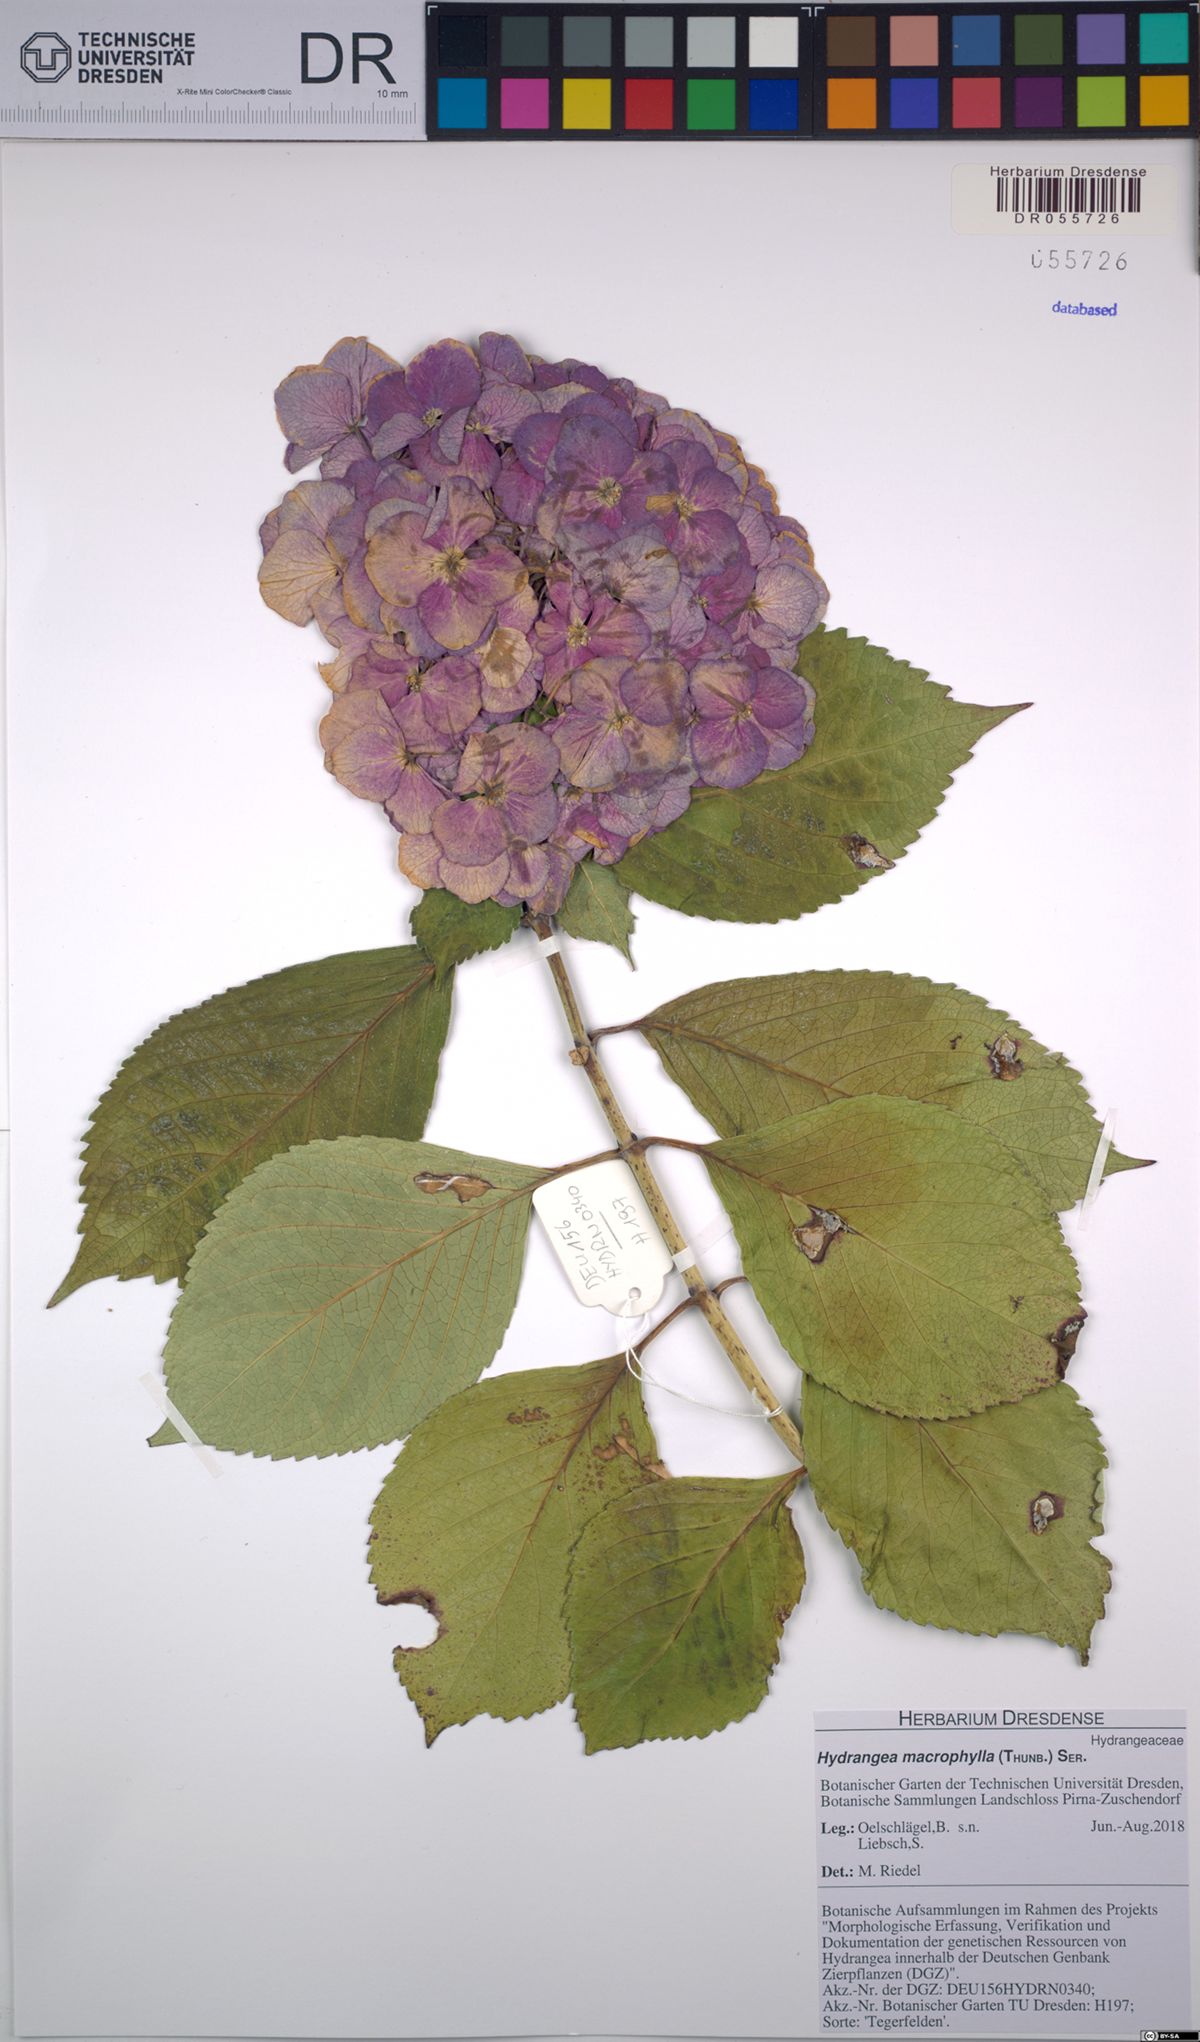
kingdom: Plantae
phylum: Tracheophyta
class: Magnoliopsida
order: Cornales
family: Hydrangeaceae
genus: Hydrangea
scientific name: Hydrangea macrophylla
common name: Hydrangea
